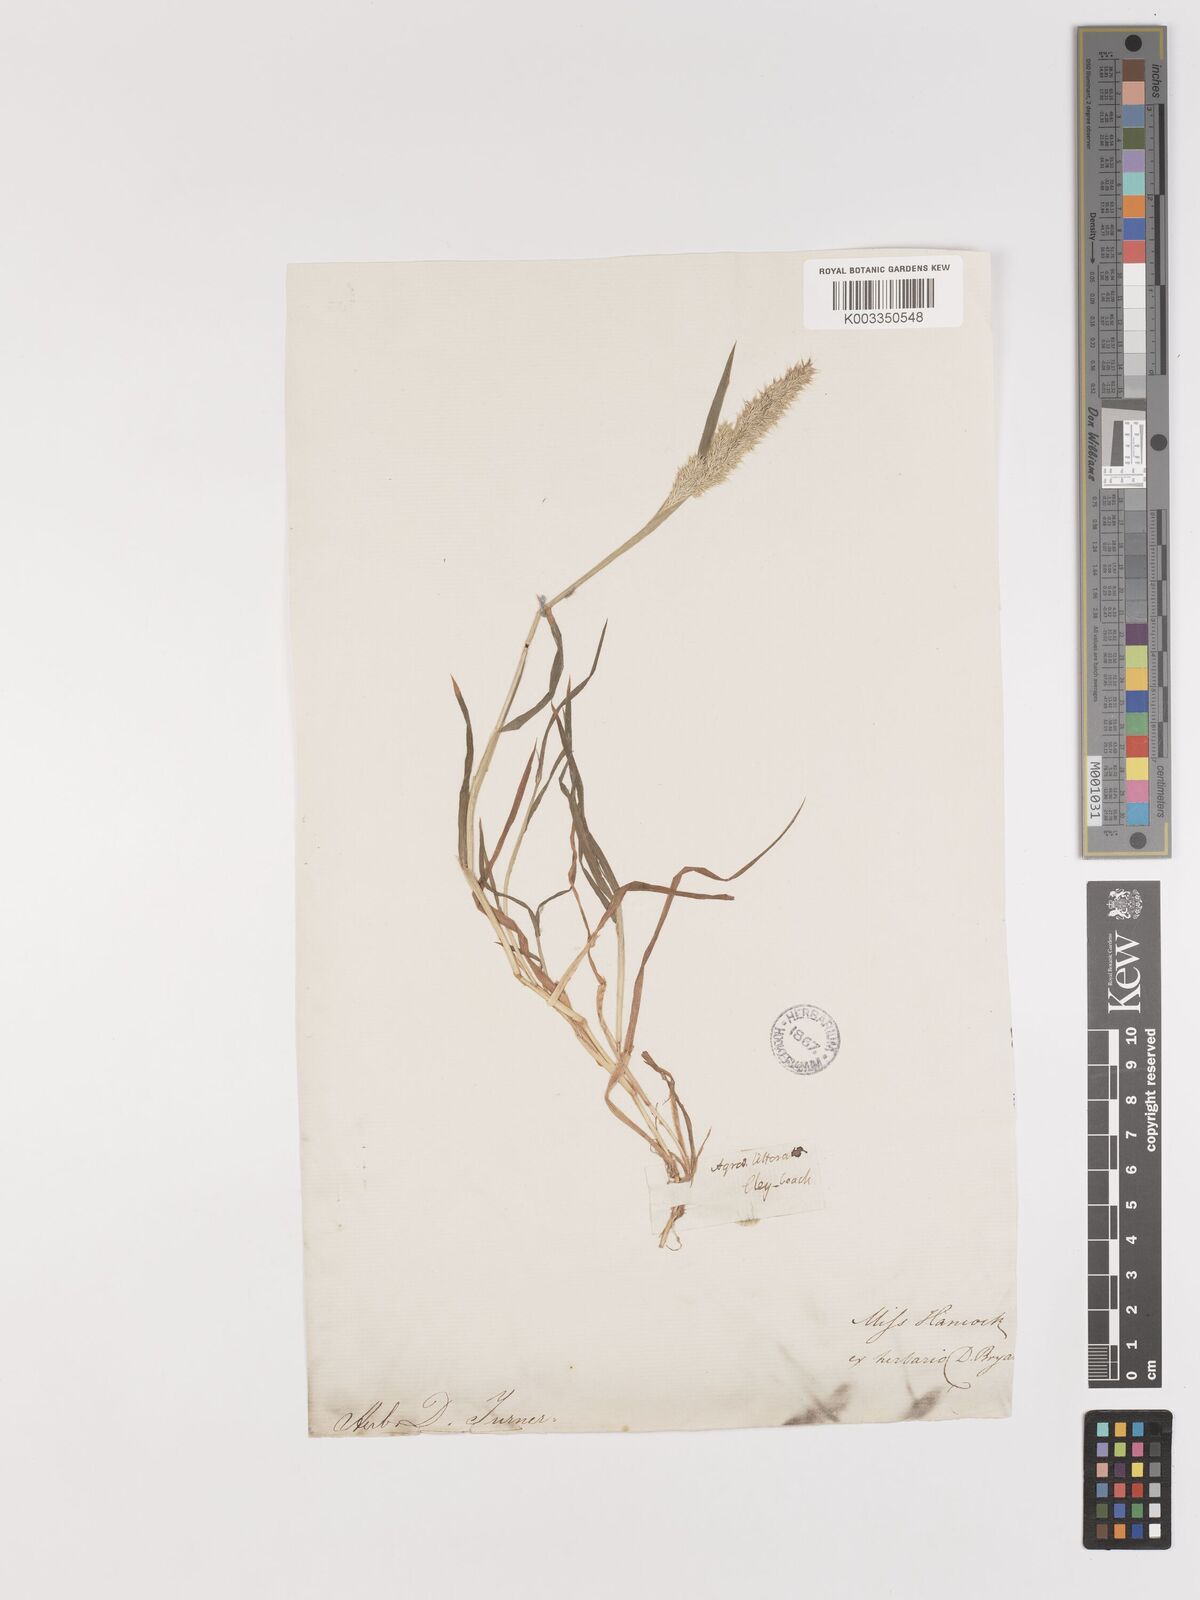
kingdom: Plantae
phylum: Tracheophyta
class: Liliopsida
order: Poales
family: Poaceae
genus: Agropogon
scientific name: Agropogon lutosus
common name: Coast agropogon
